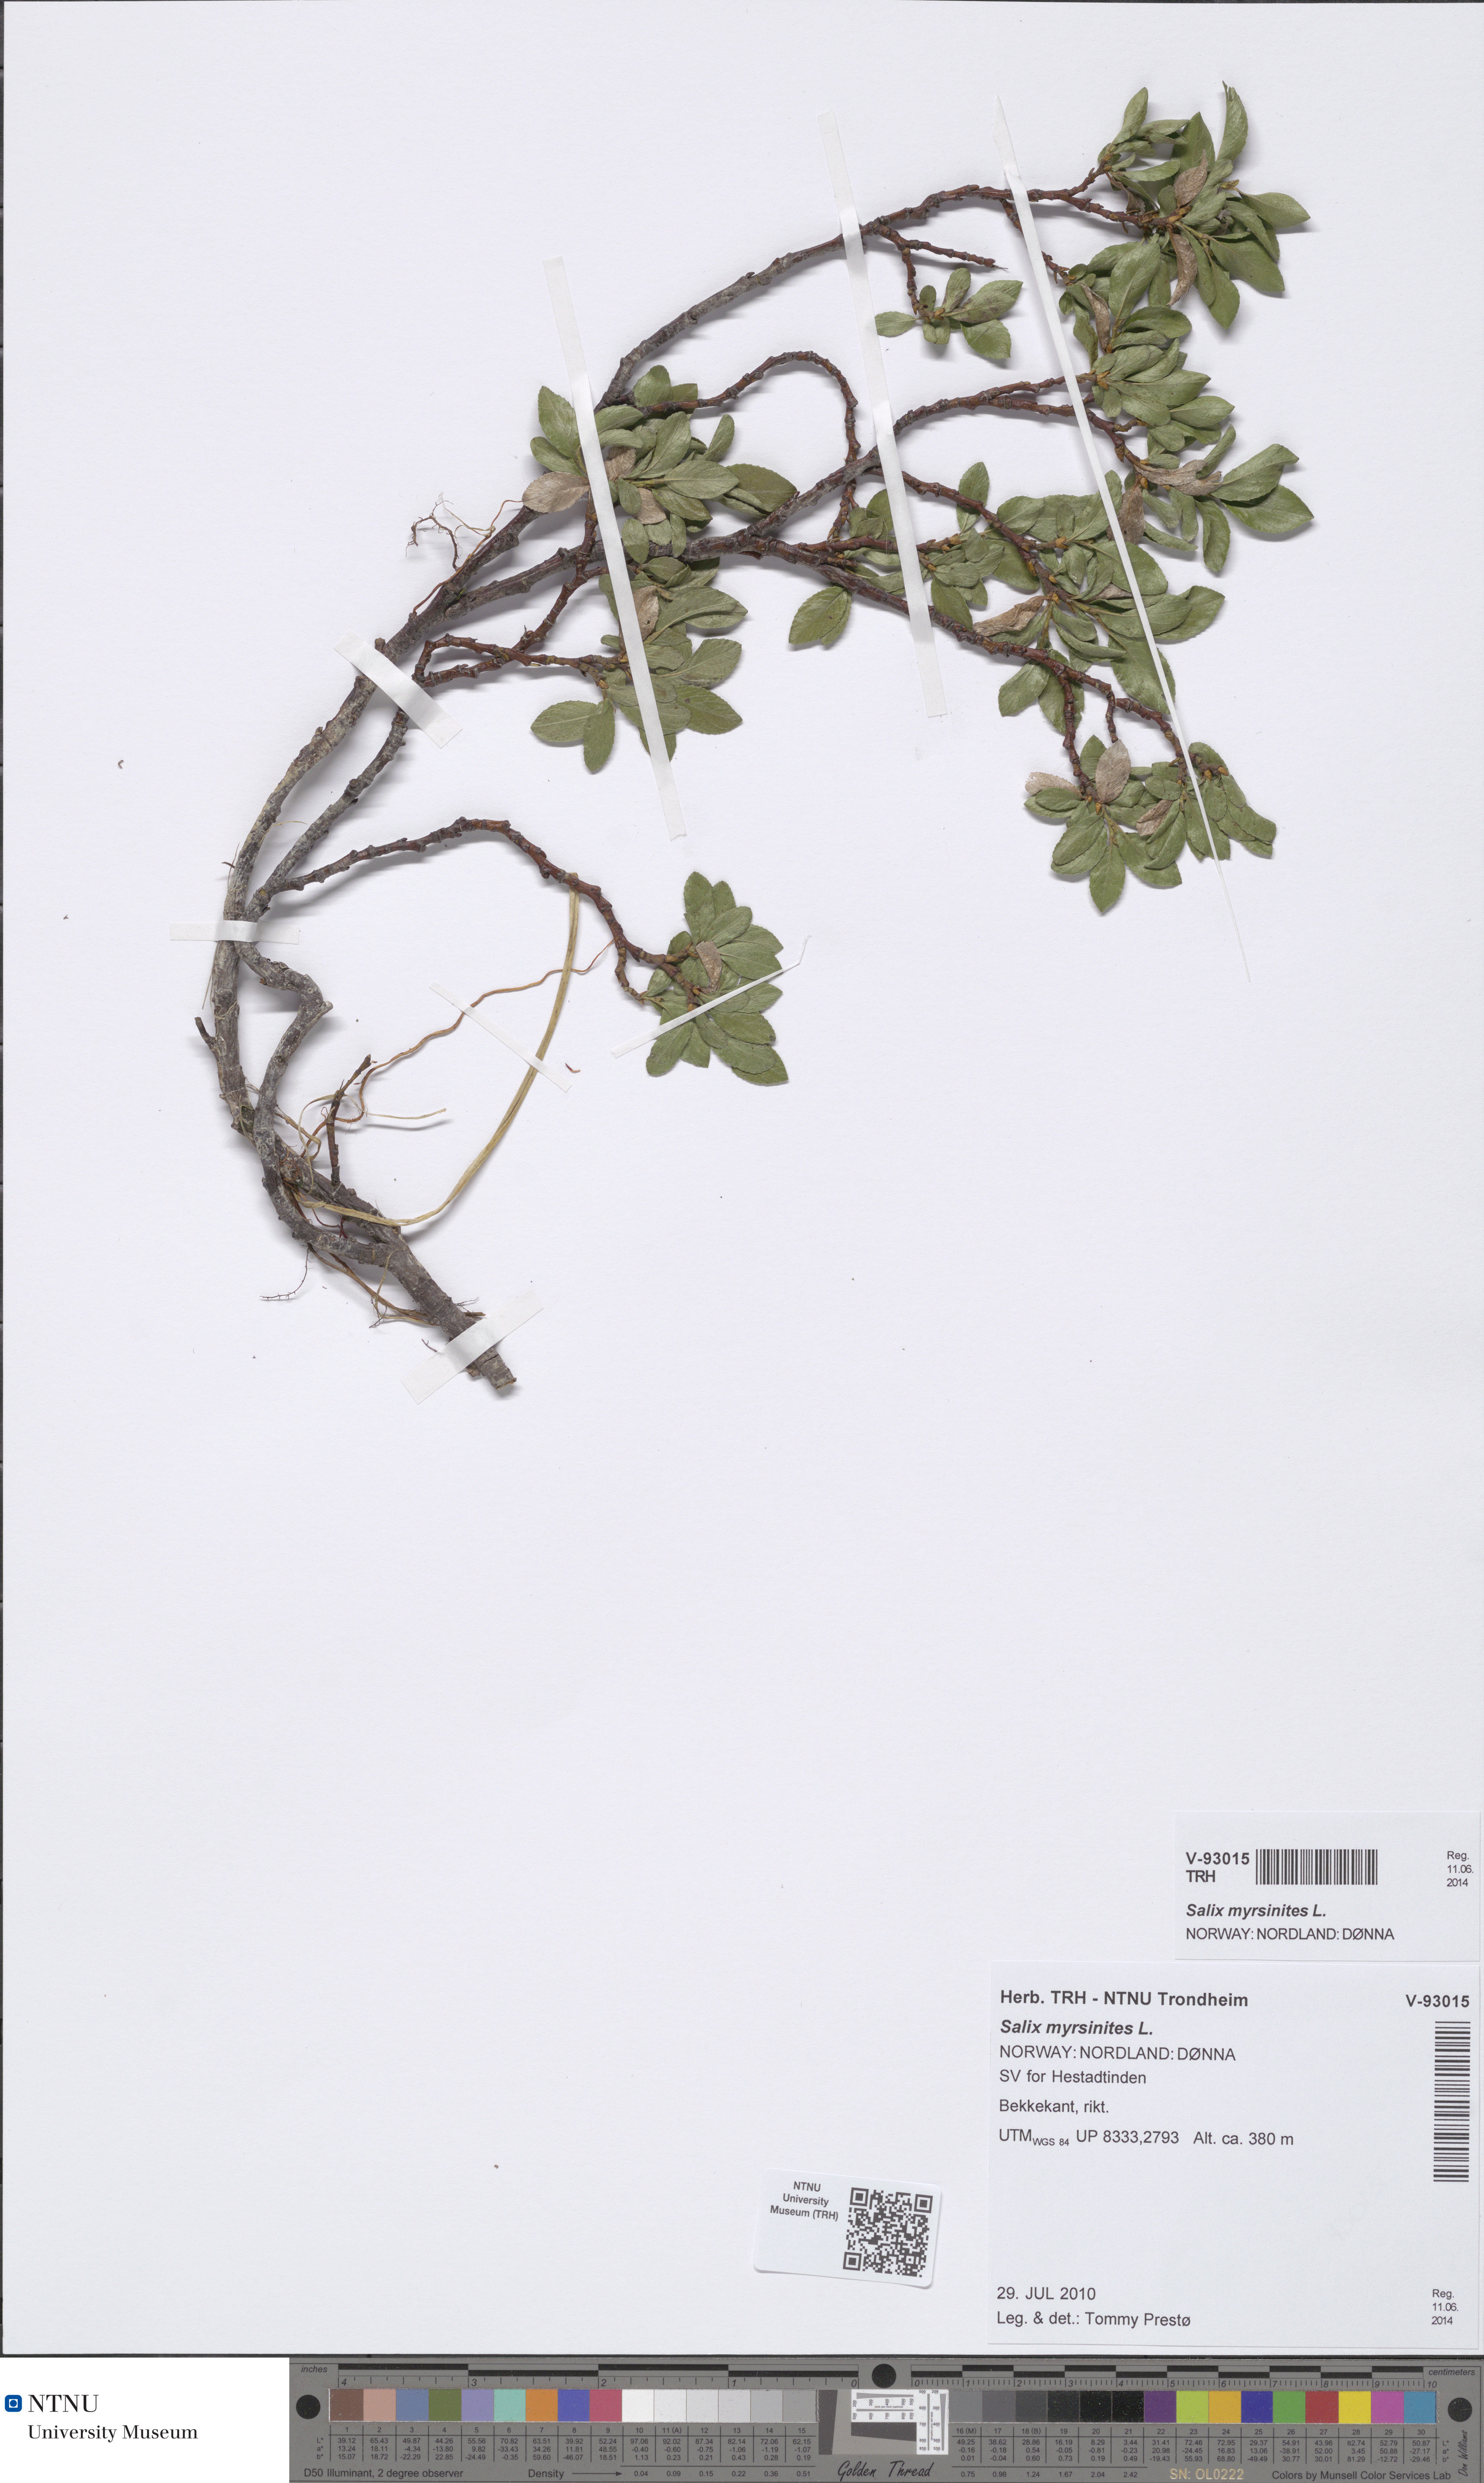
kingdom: Plantae
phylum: Tracheophyta
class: Magnoliopsida
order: Malpighiales
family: Salicaceae
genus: Salix
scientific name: Salix myrsinites
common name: Myrtle willow
